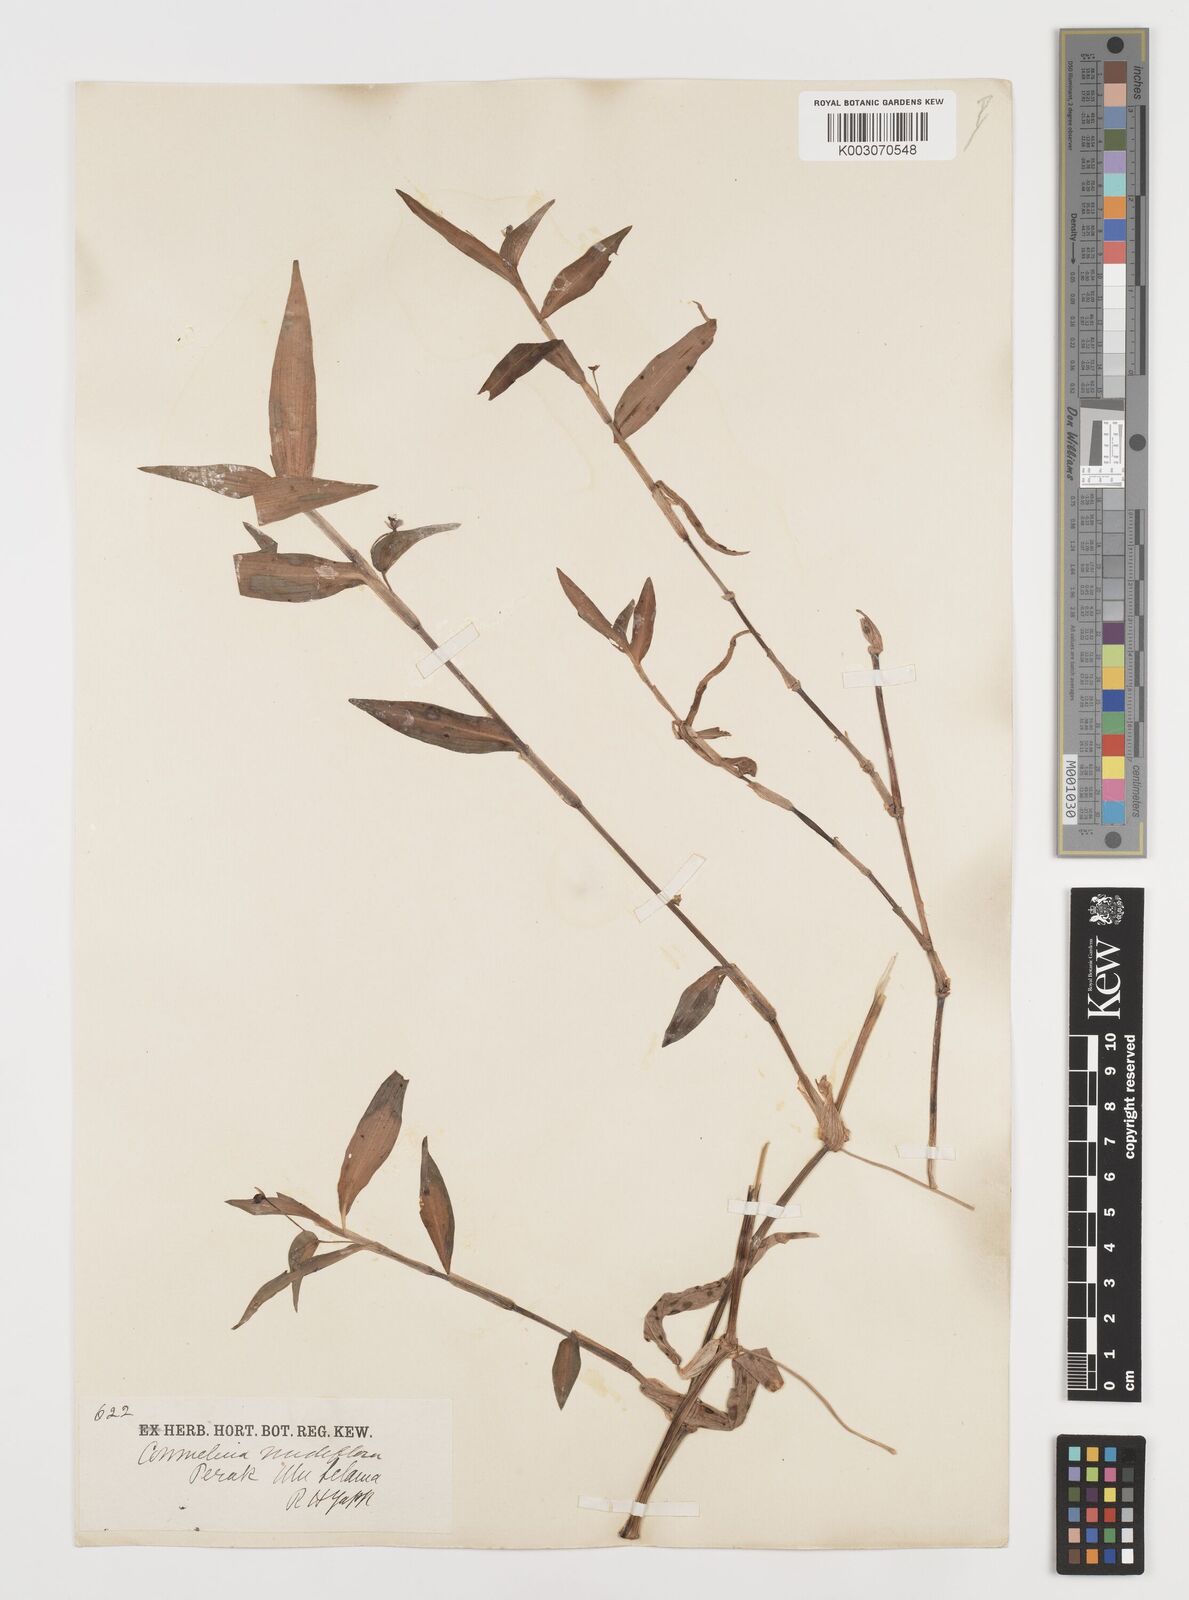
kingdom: Plantae
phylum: Tracheophyta
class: Liliopsida
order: Commelinales
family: Commelinaceae
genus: Commelina
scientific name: Commelina clavata
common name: Willow leaved dayflower
